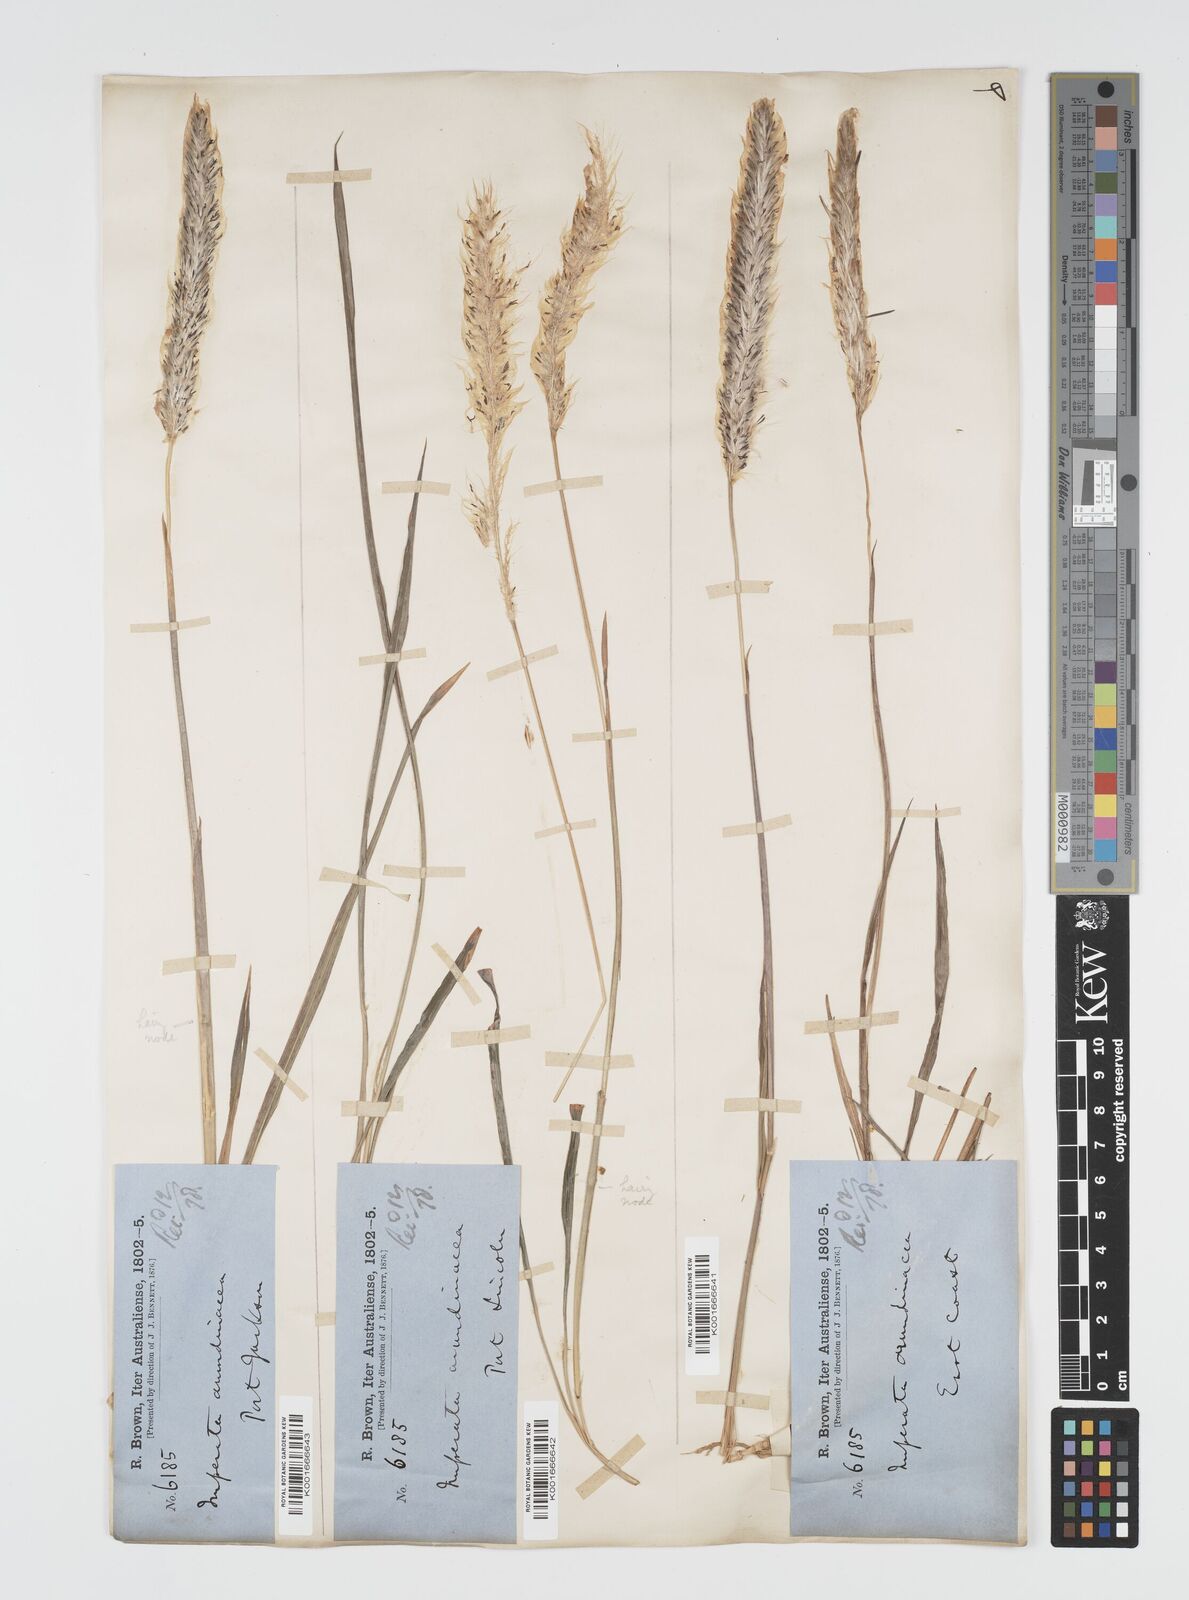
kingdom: Plantae
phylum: Tracheophyta
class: Liliopsida
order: Poales
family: Poaceae
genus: Imperata
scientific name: Imperata cylindrica
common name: Cogongrass
